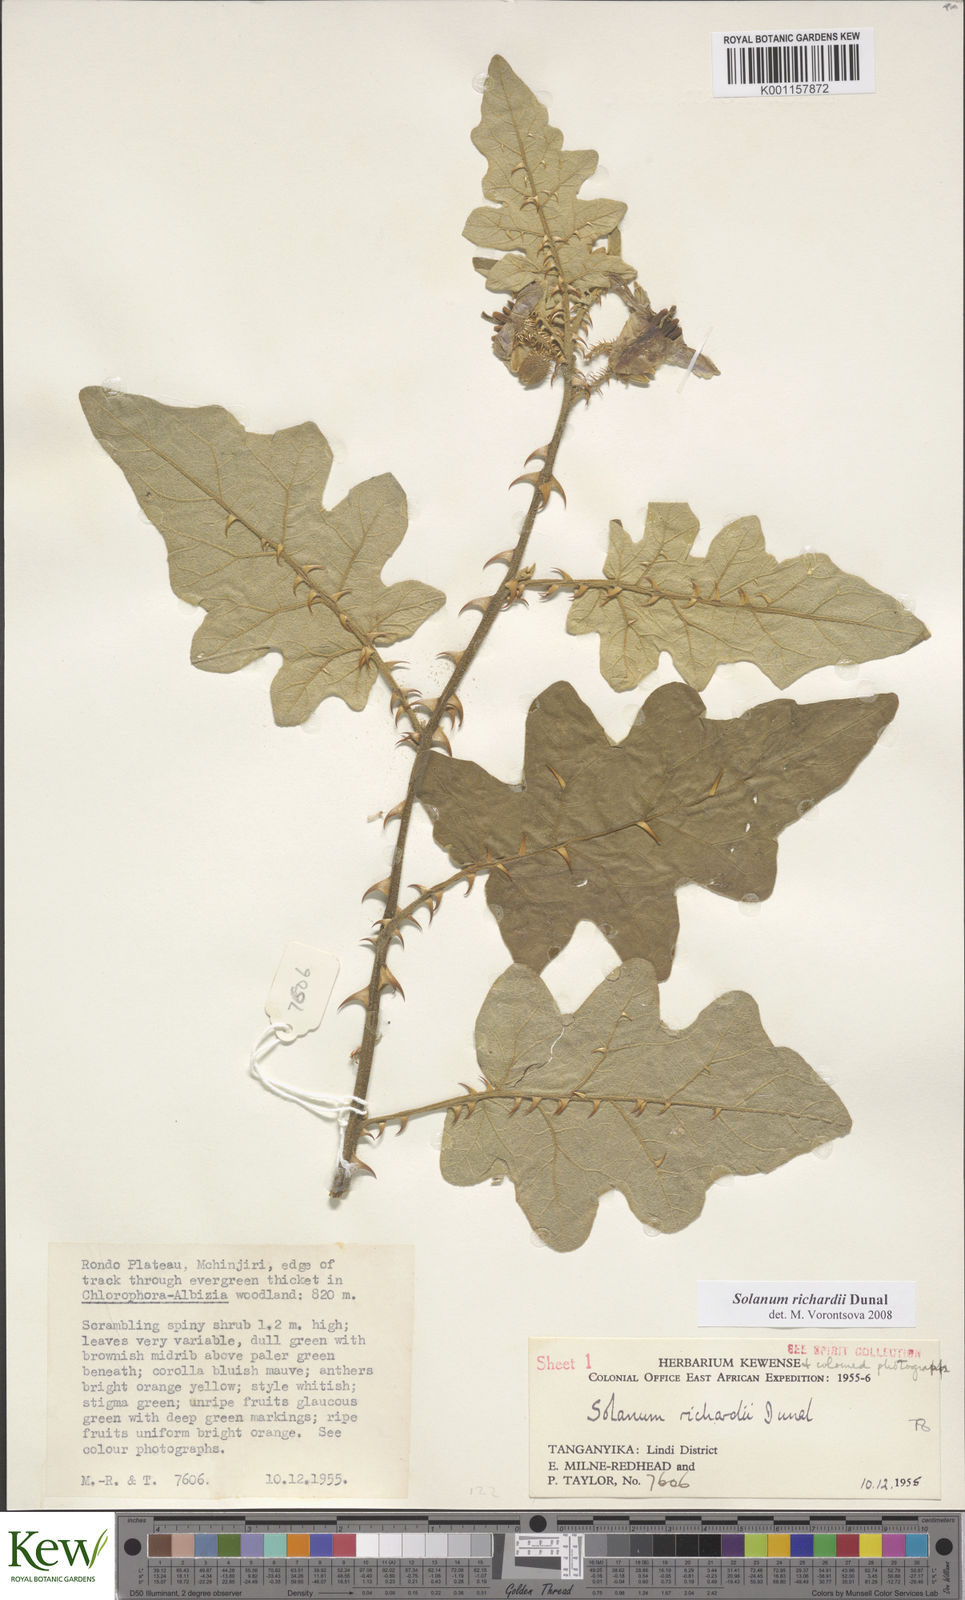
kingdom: Plantae
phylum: Tracheophyta
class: Magnoliopsida
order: Solanales
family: Solanaceae
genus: Solanum
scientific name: Solanum richardii
